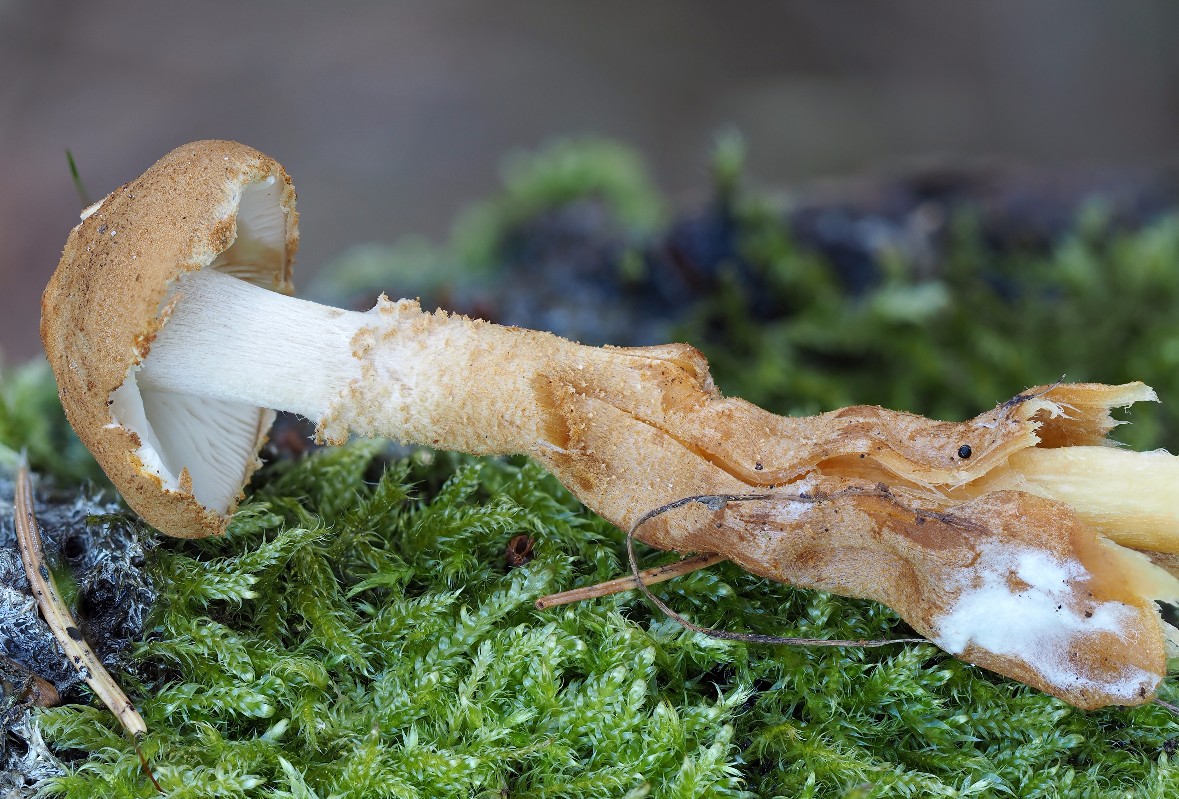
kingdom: Fungi
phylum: Basidiomycota
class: Agaricomycetes
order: Agaricales
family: Tricholomataceae
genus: Cystoderma
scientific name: Cystoderma amianthinum
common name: okkergul grynhat
